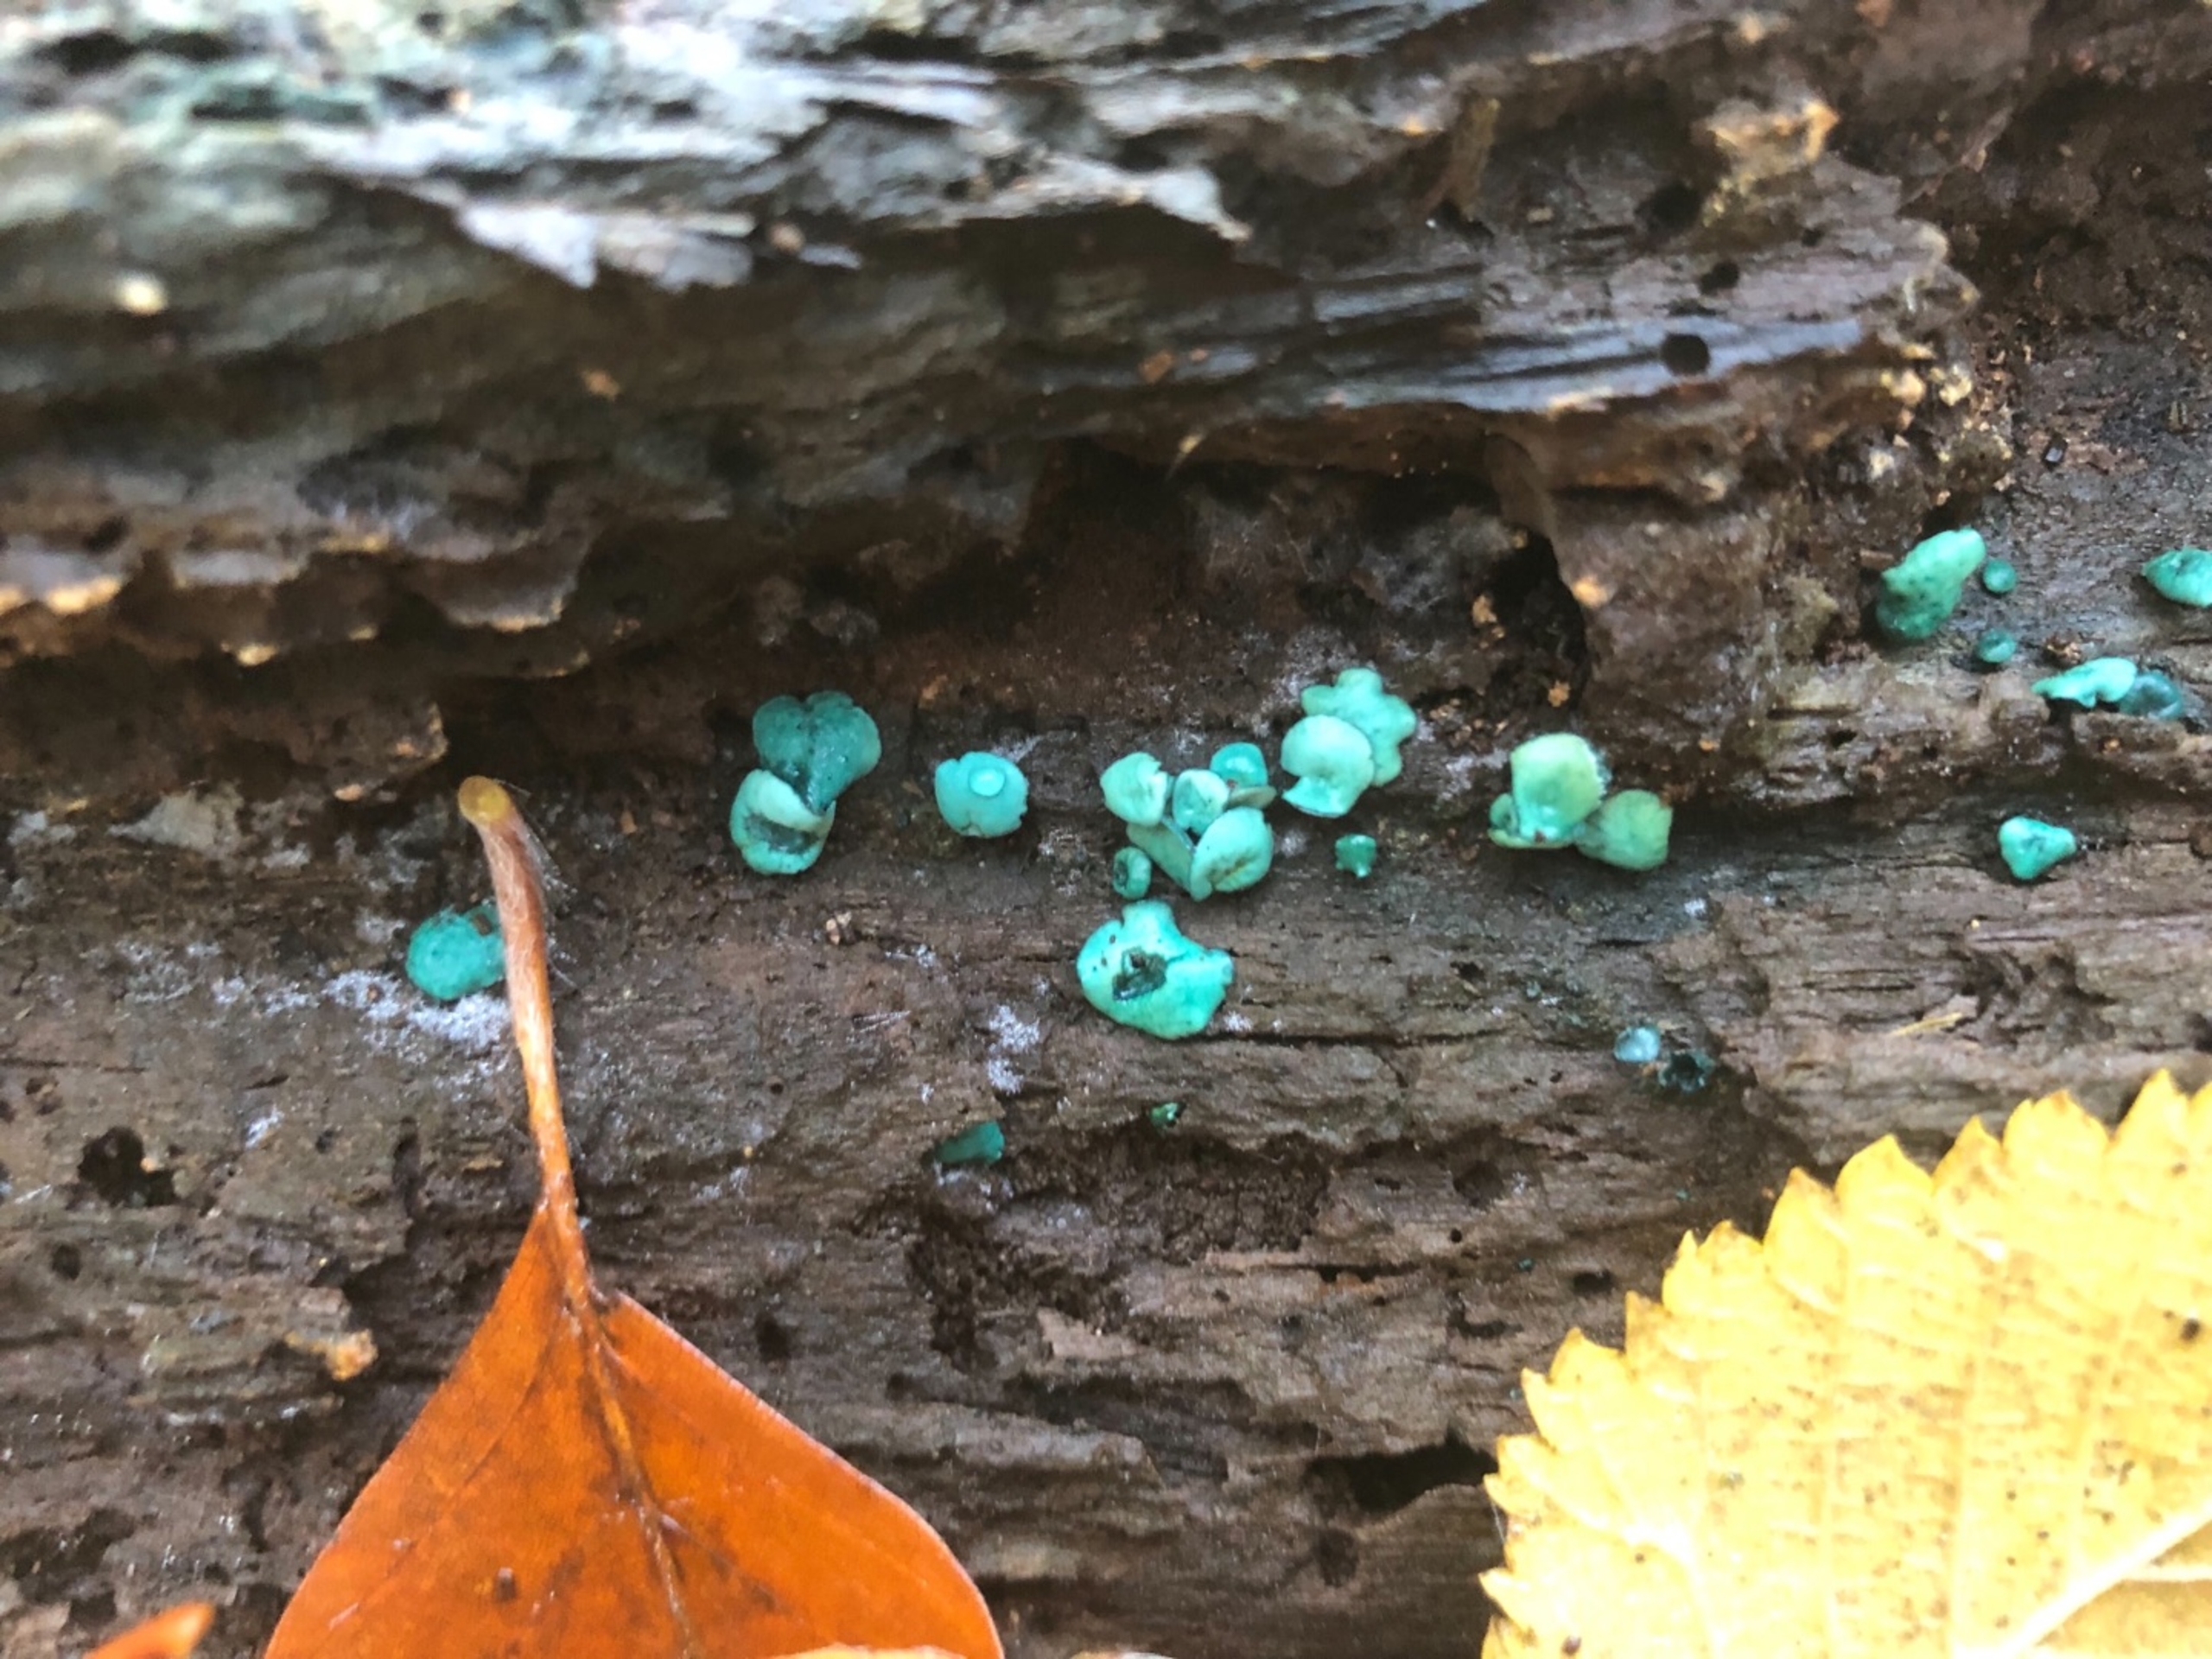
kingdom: Fungi
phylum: Ascomycota
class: Leotiomycetes
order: Helotiales
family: Chlorociboriaceae
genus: Chlorociboria
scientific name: Chlorociboria aeruginascens
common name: Almindelig grønskive
